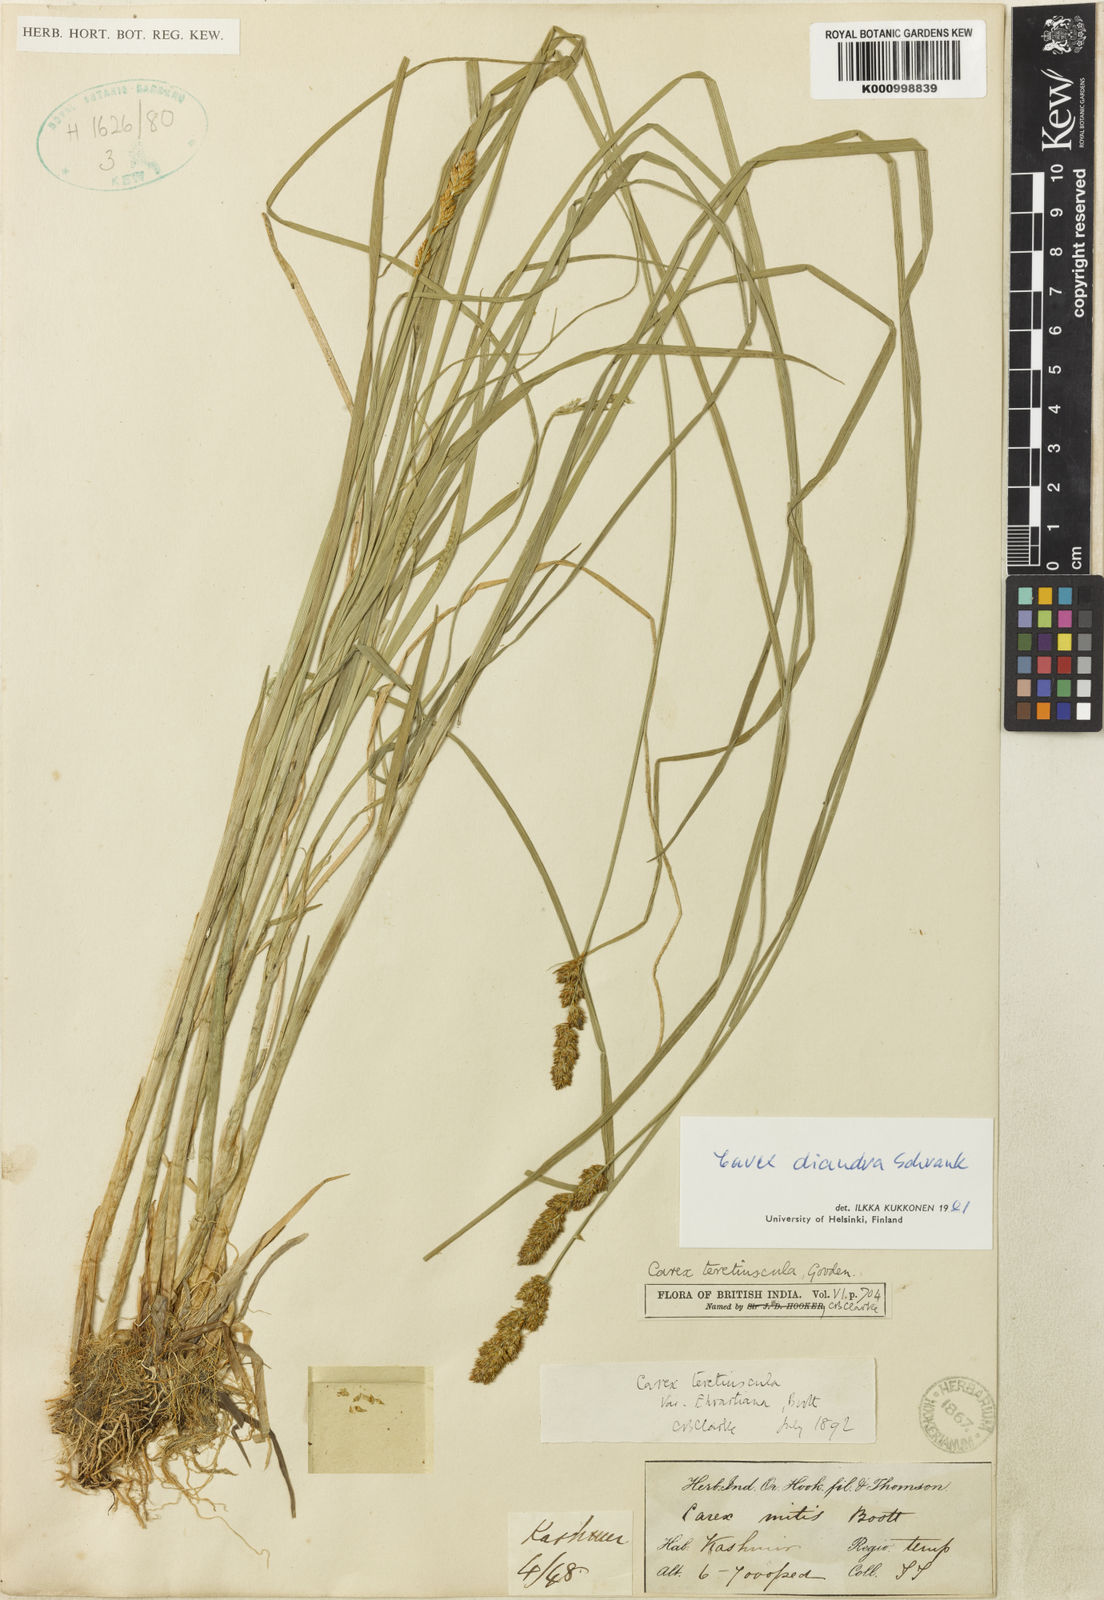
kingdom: Plantae
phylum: Tracheophyta
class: Liliopsida
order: Poales
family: Cyperaceae
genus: Carex
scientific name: Carex diandra
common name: Lesser tussock-sedge
